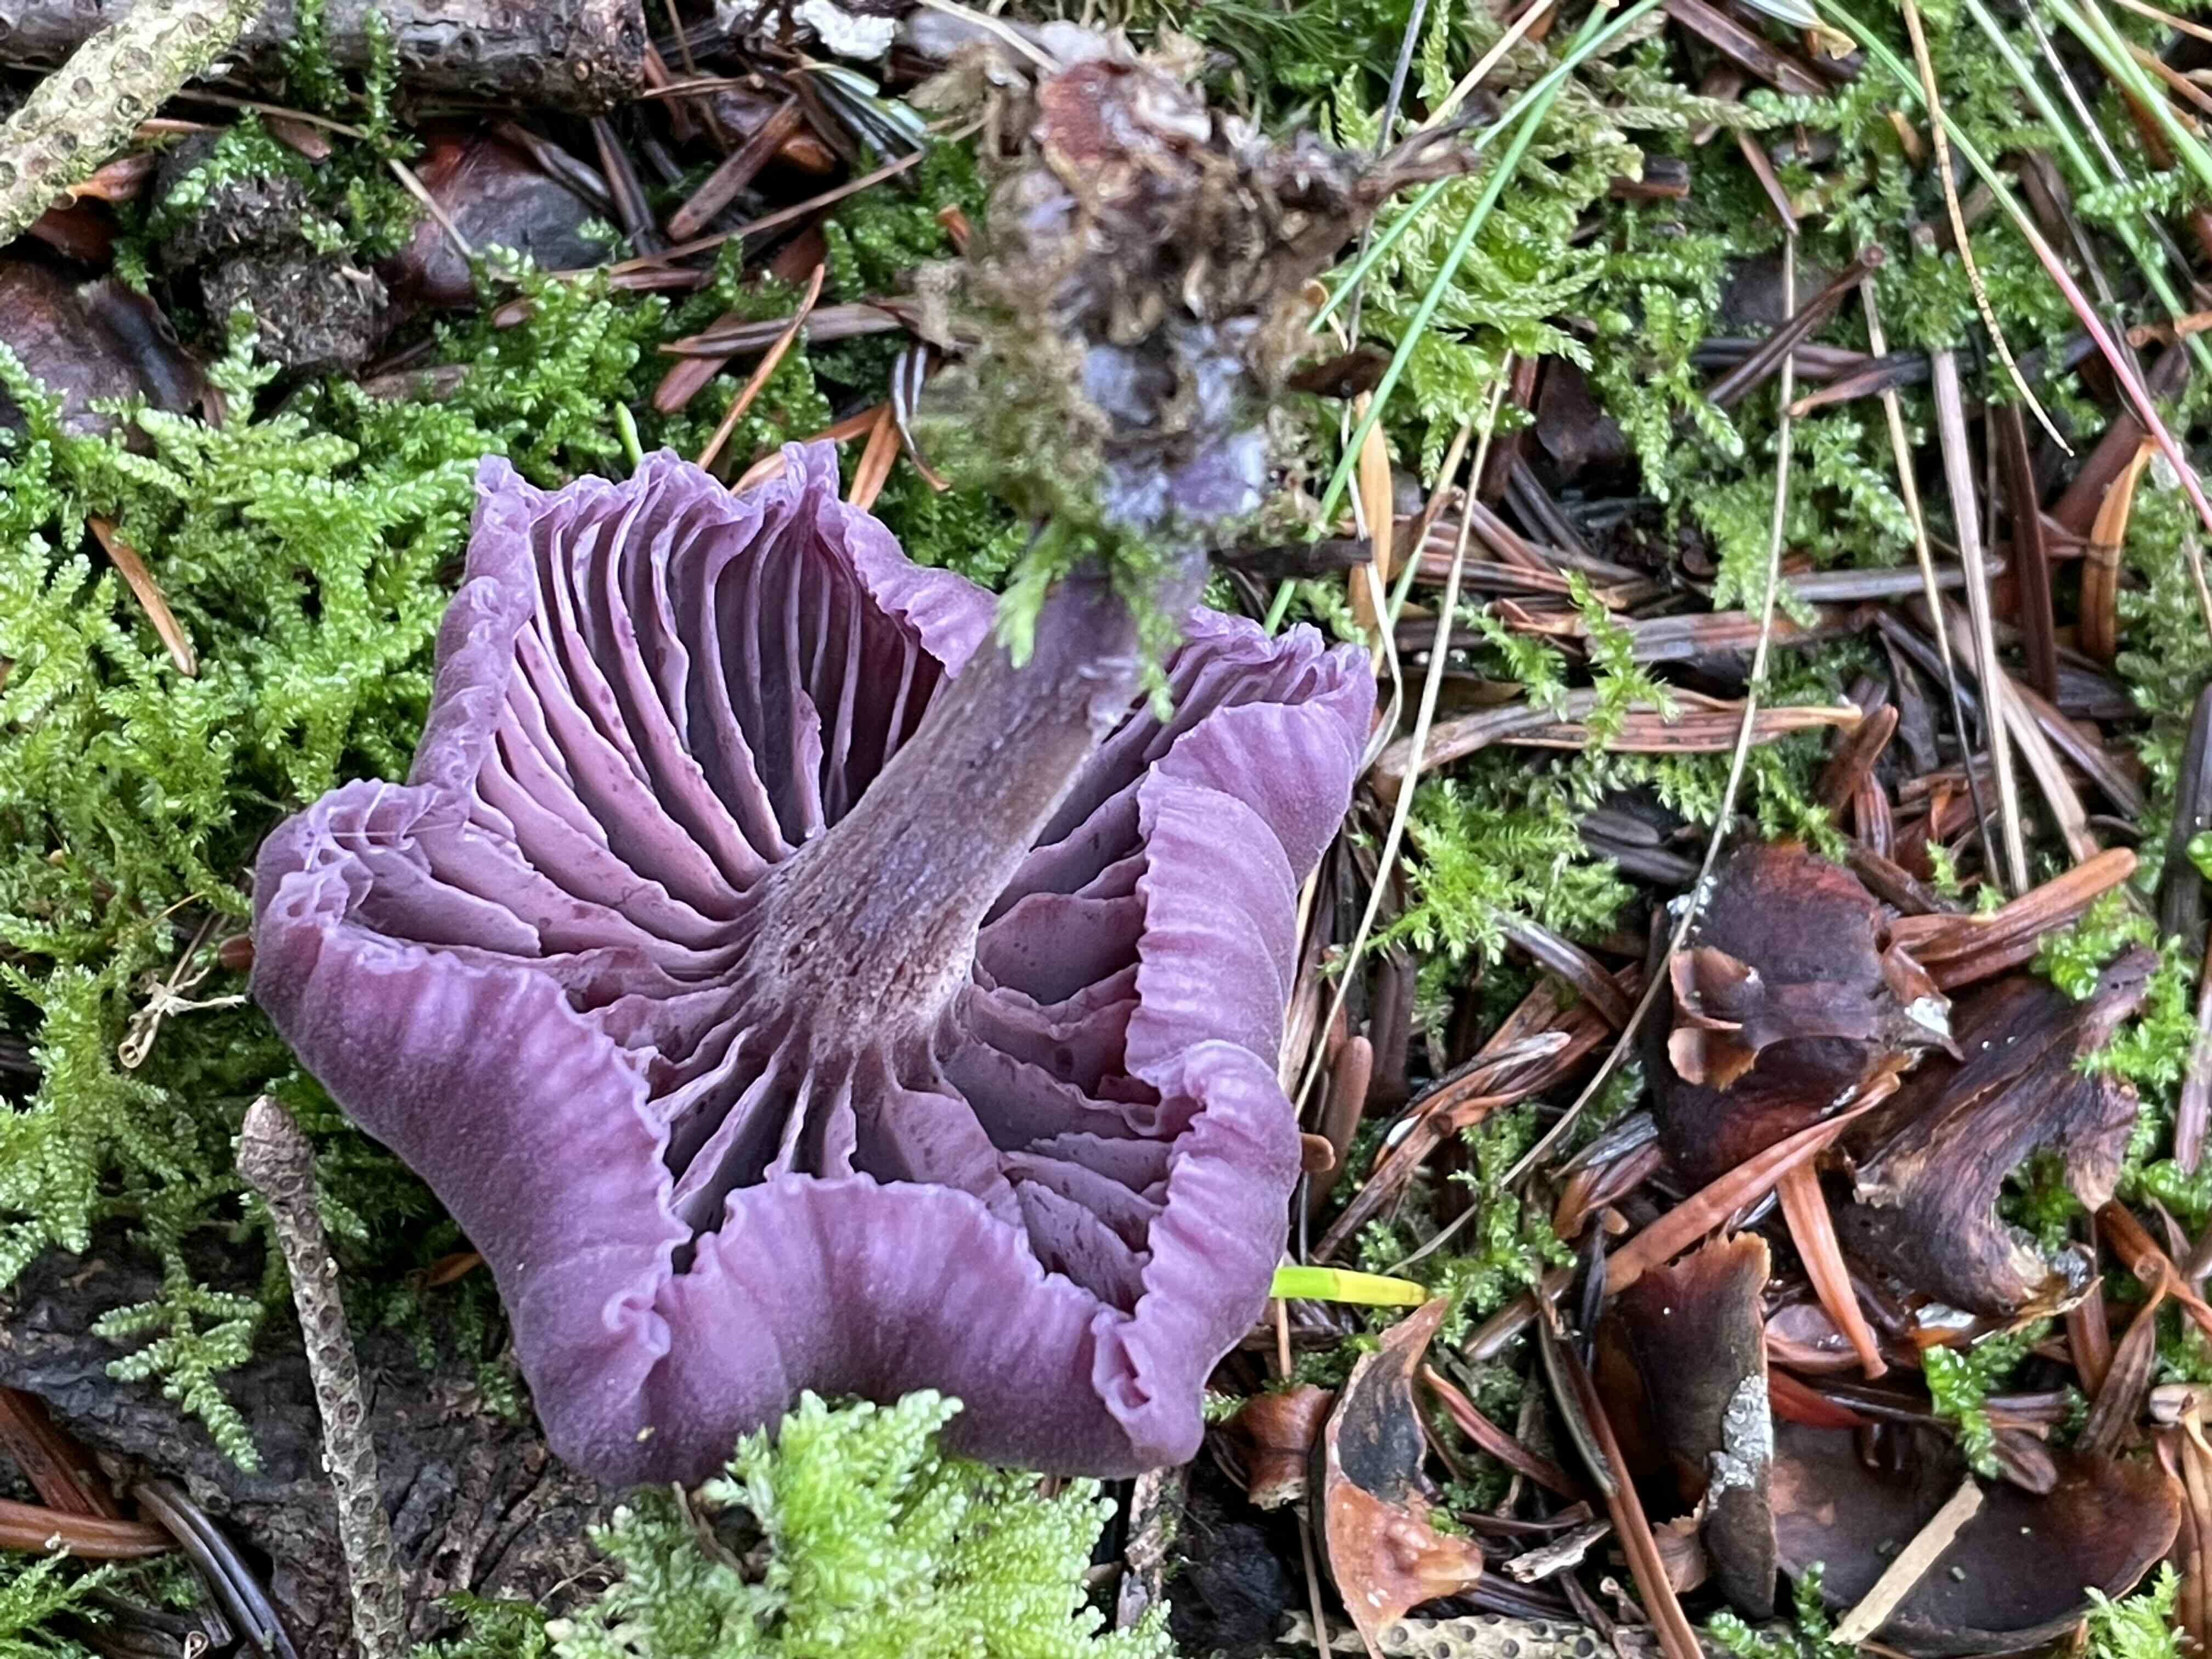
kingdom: Fungi
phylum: Basidiomycota
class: Agaricomycetes
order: Agaricales
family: Hydnangiaceae
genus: Laccaria
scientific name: Laccaria amethystina
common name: violet ametysthat
